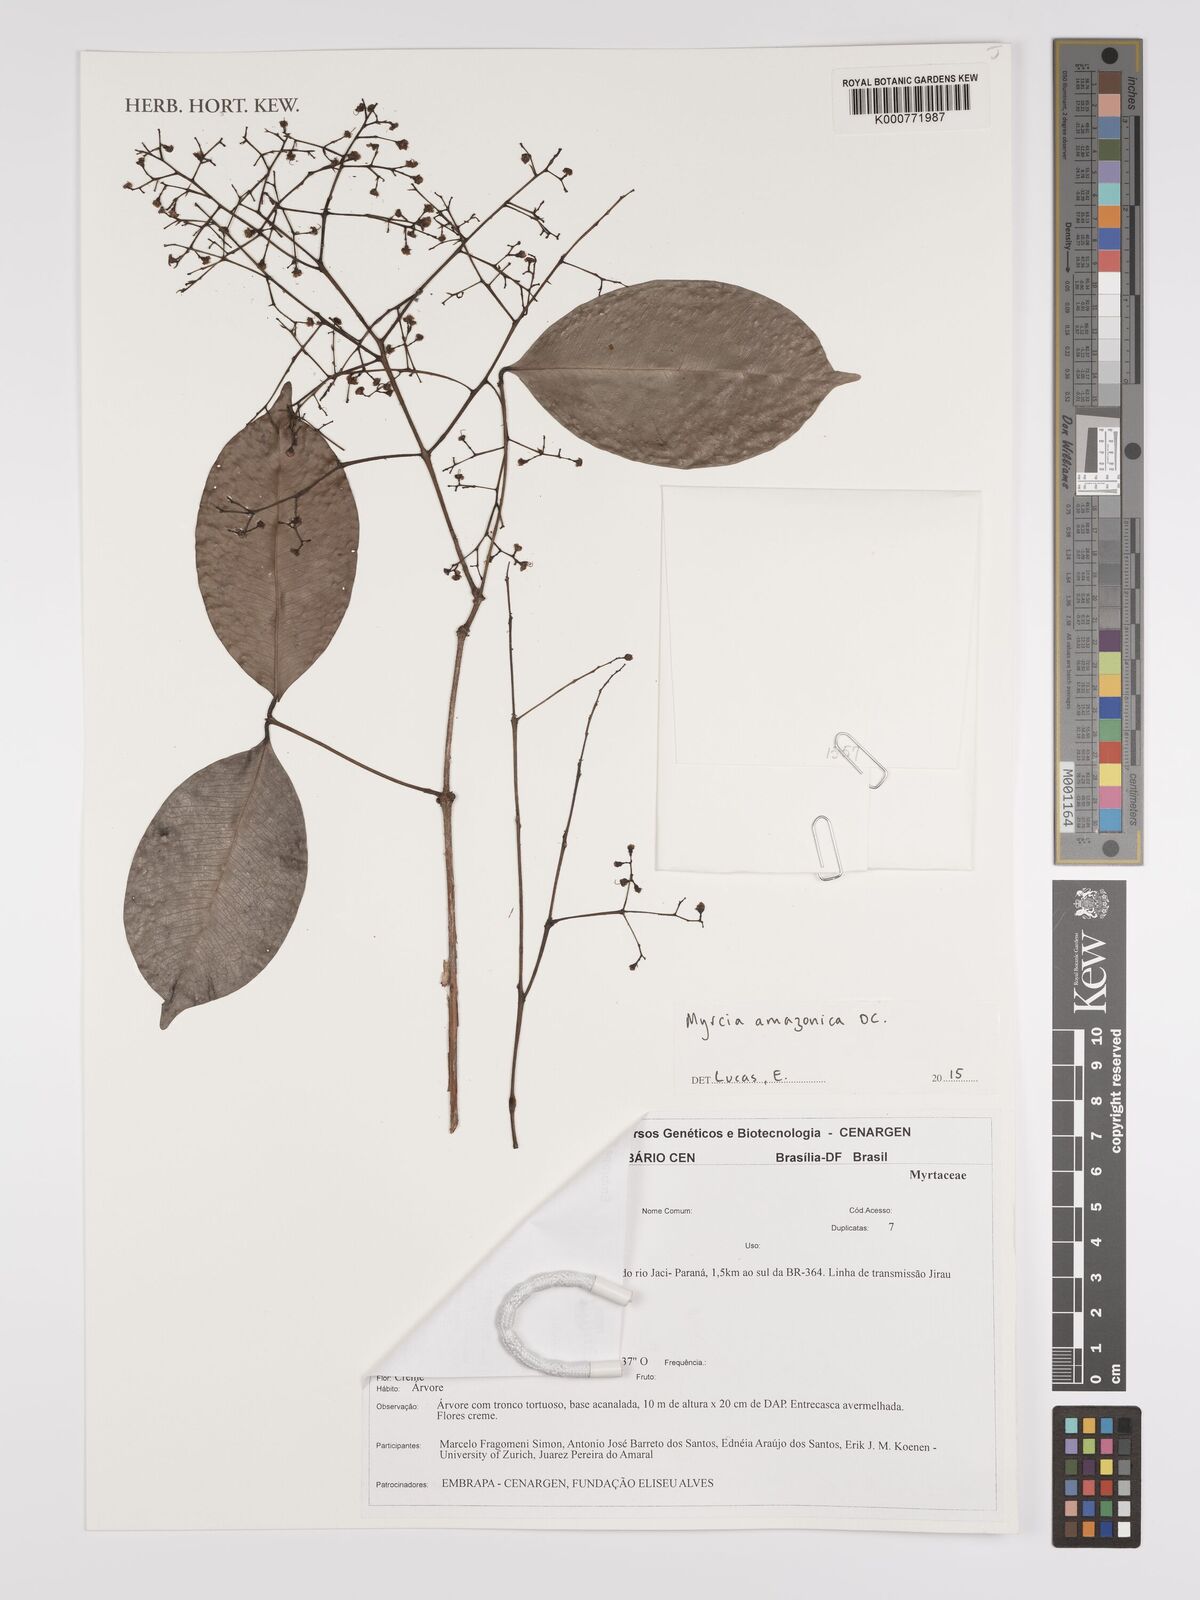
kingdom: Plantae
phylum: Tracheophyta
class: Magnoliopsida
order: Myrtales
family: Myrtaceae
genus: Myrcia
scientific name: Myrcia amazonica
